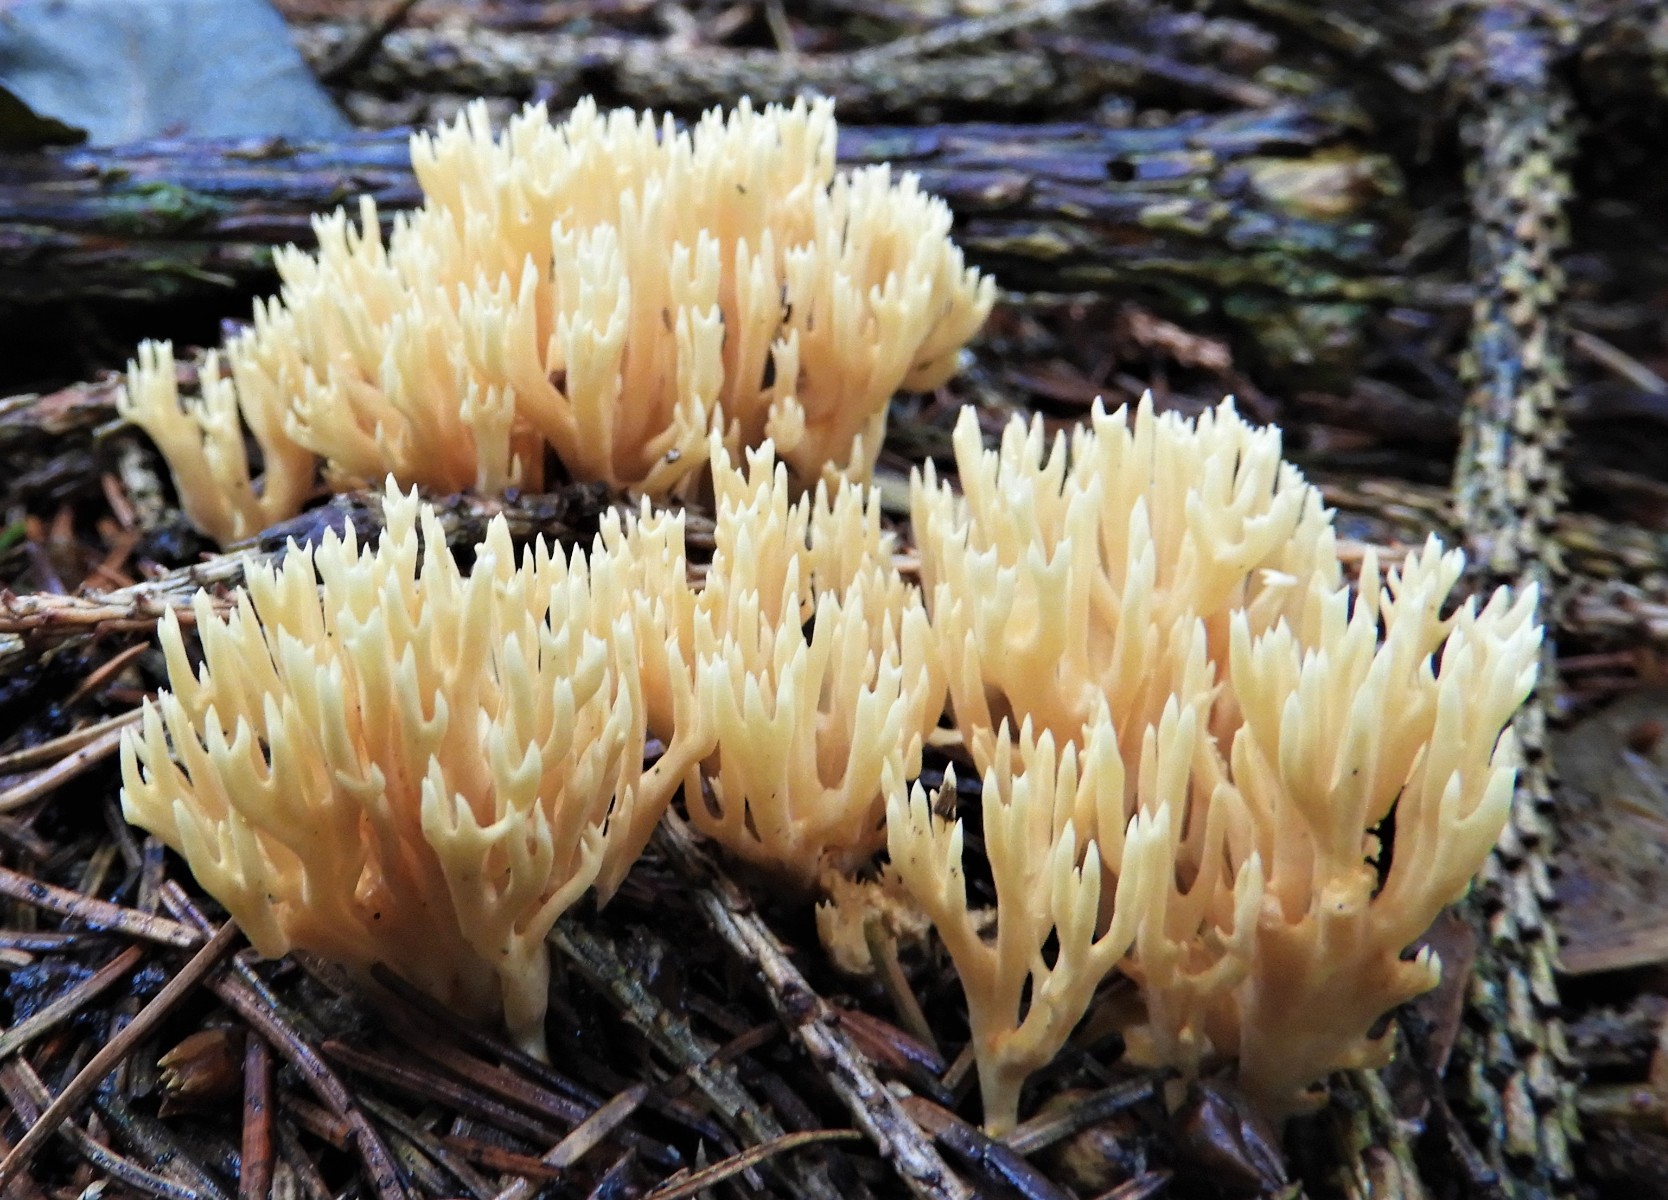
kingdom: Fungi
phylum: Basidiomycota
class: Agaricomycetes
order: Gomphales
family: Gomphaceae
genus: Phaeoclavulina
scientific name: Phaeoclavulina eumorpha
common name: gran-koralsvamp
